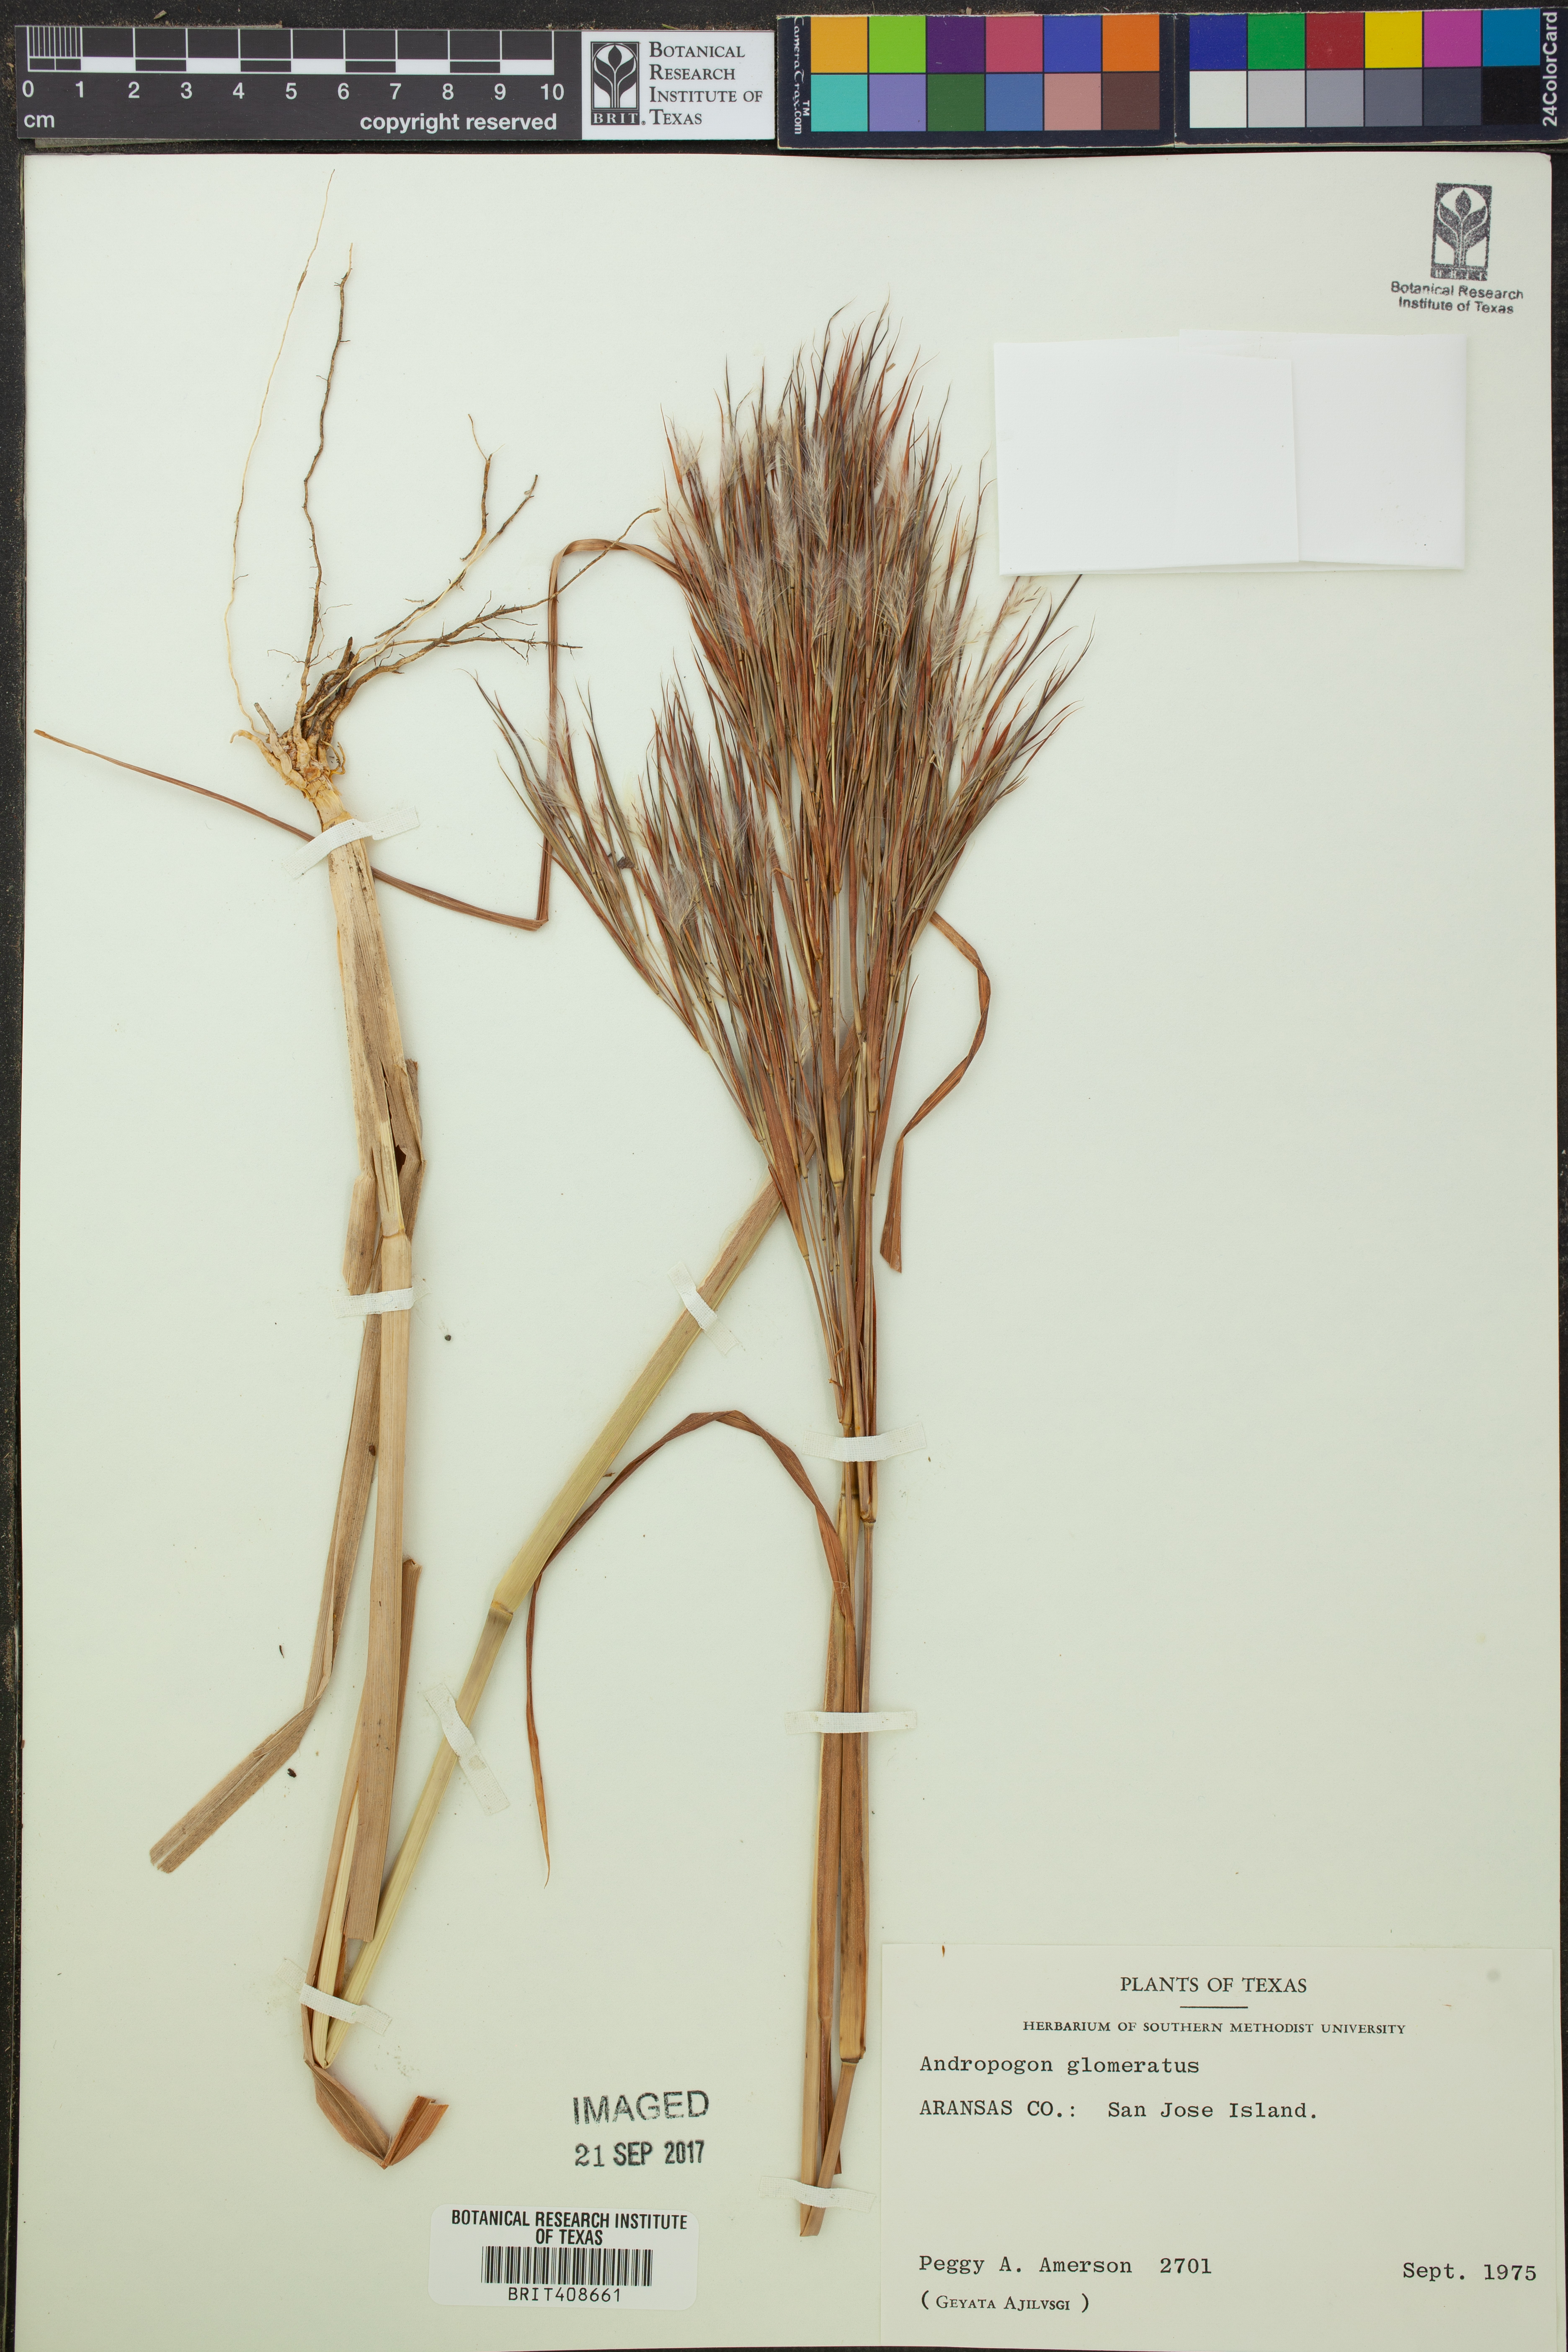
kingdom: Plantae
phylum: Tracheophyta
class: Liliopsida
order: Poales
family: Poaceae
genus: Andropogon
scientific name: Andropogon glomeratus
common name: Bushy beard grass
